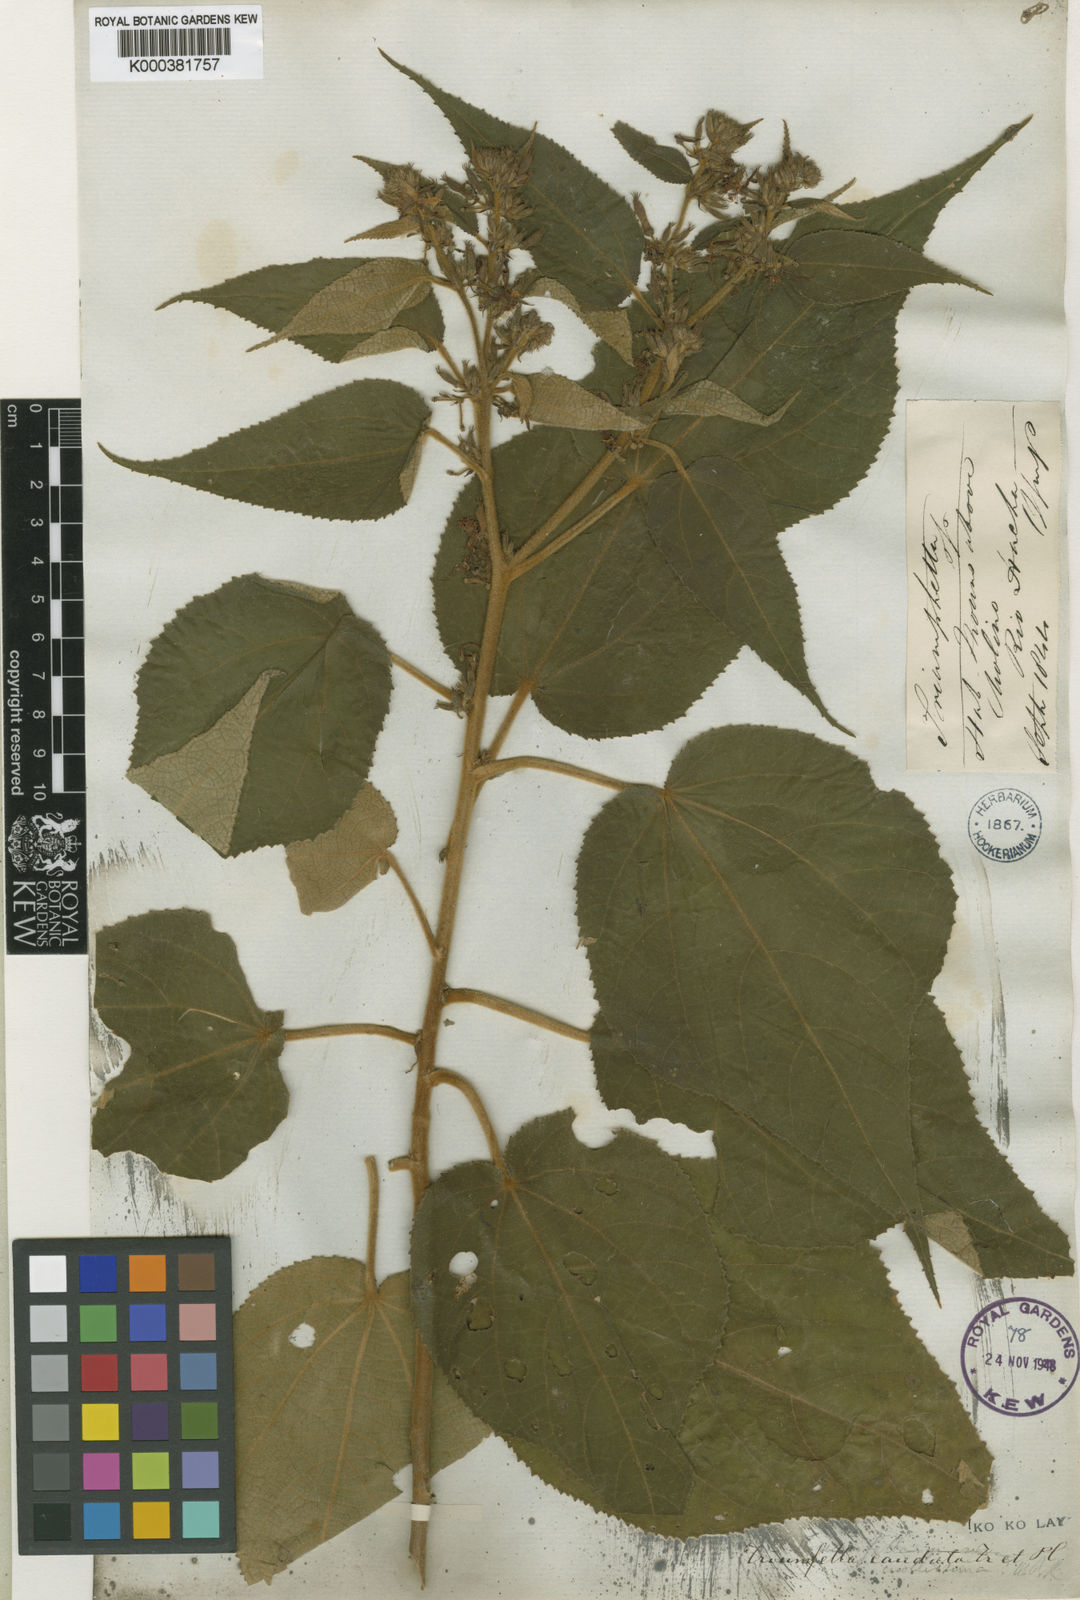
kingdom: Plantae
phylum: Tracheophyta
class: Magnoliopsida
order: Malvales
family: Malvaceae
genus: Triumfetta
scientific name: Triumfetta caudata
